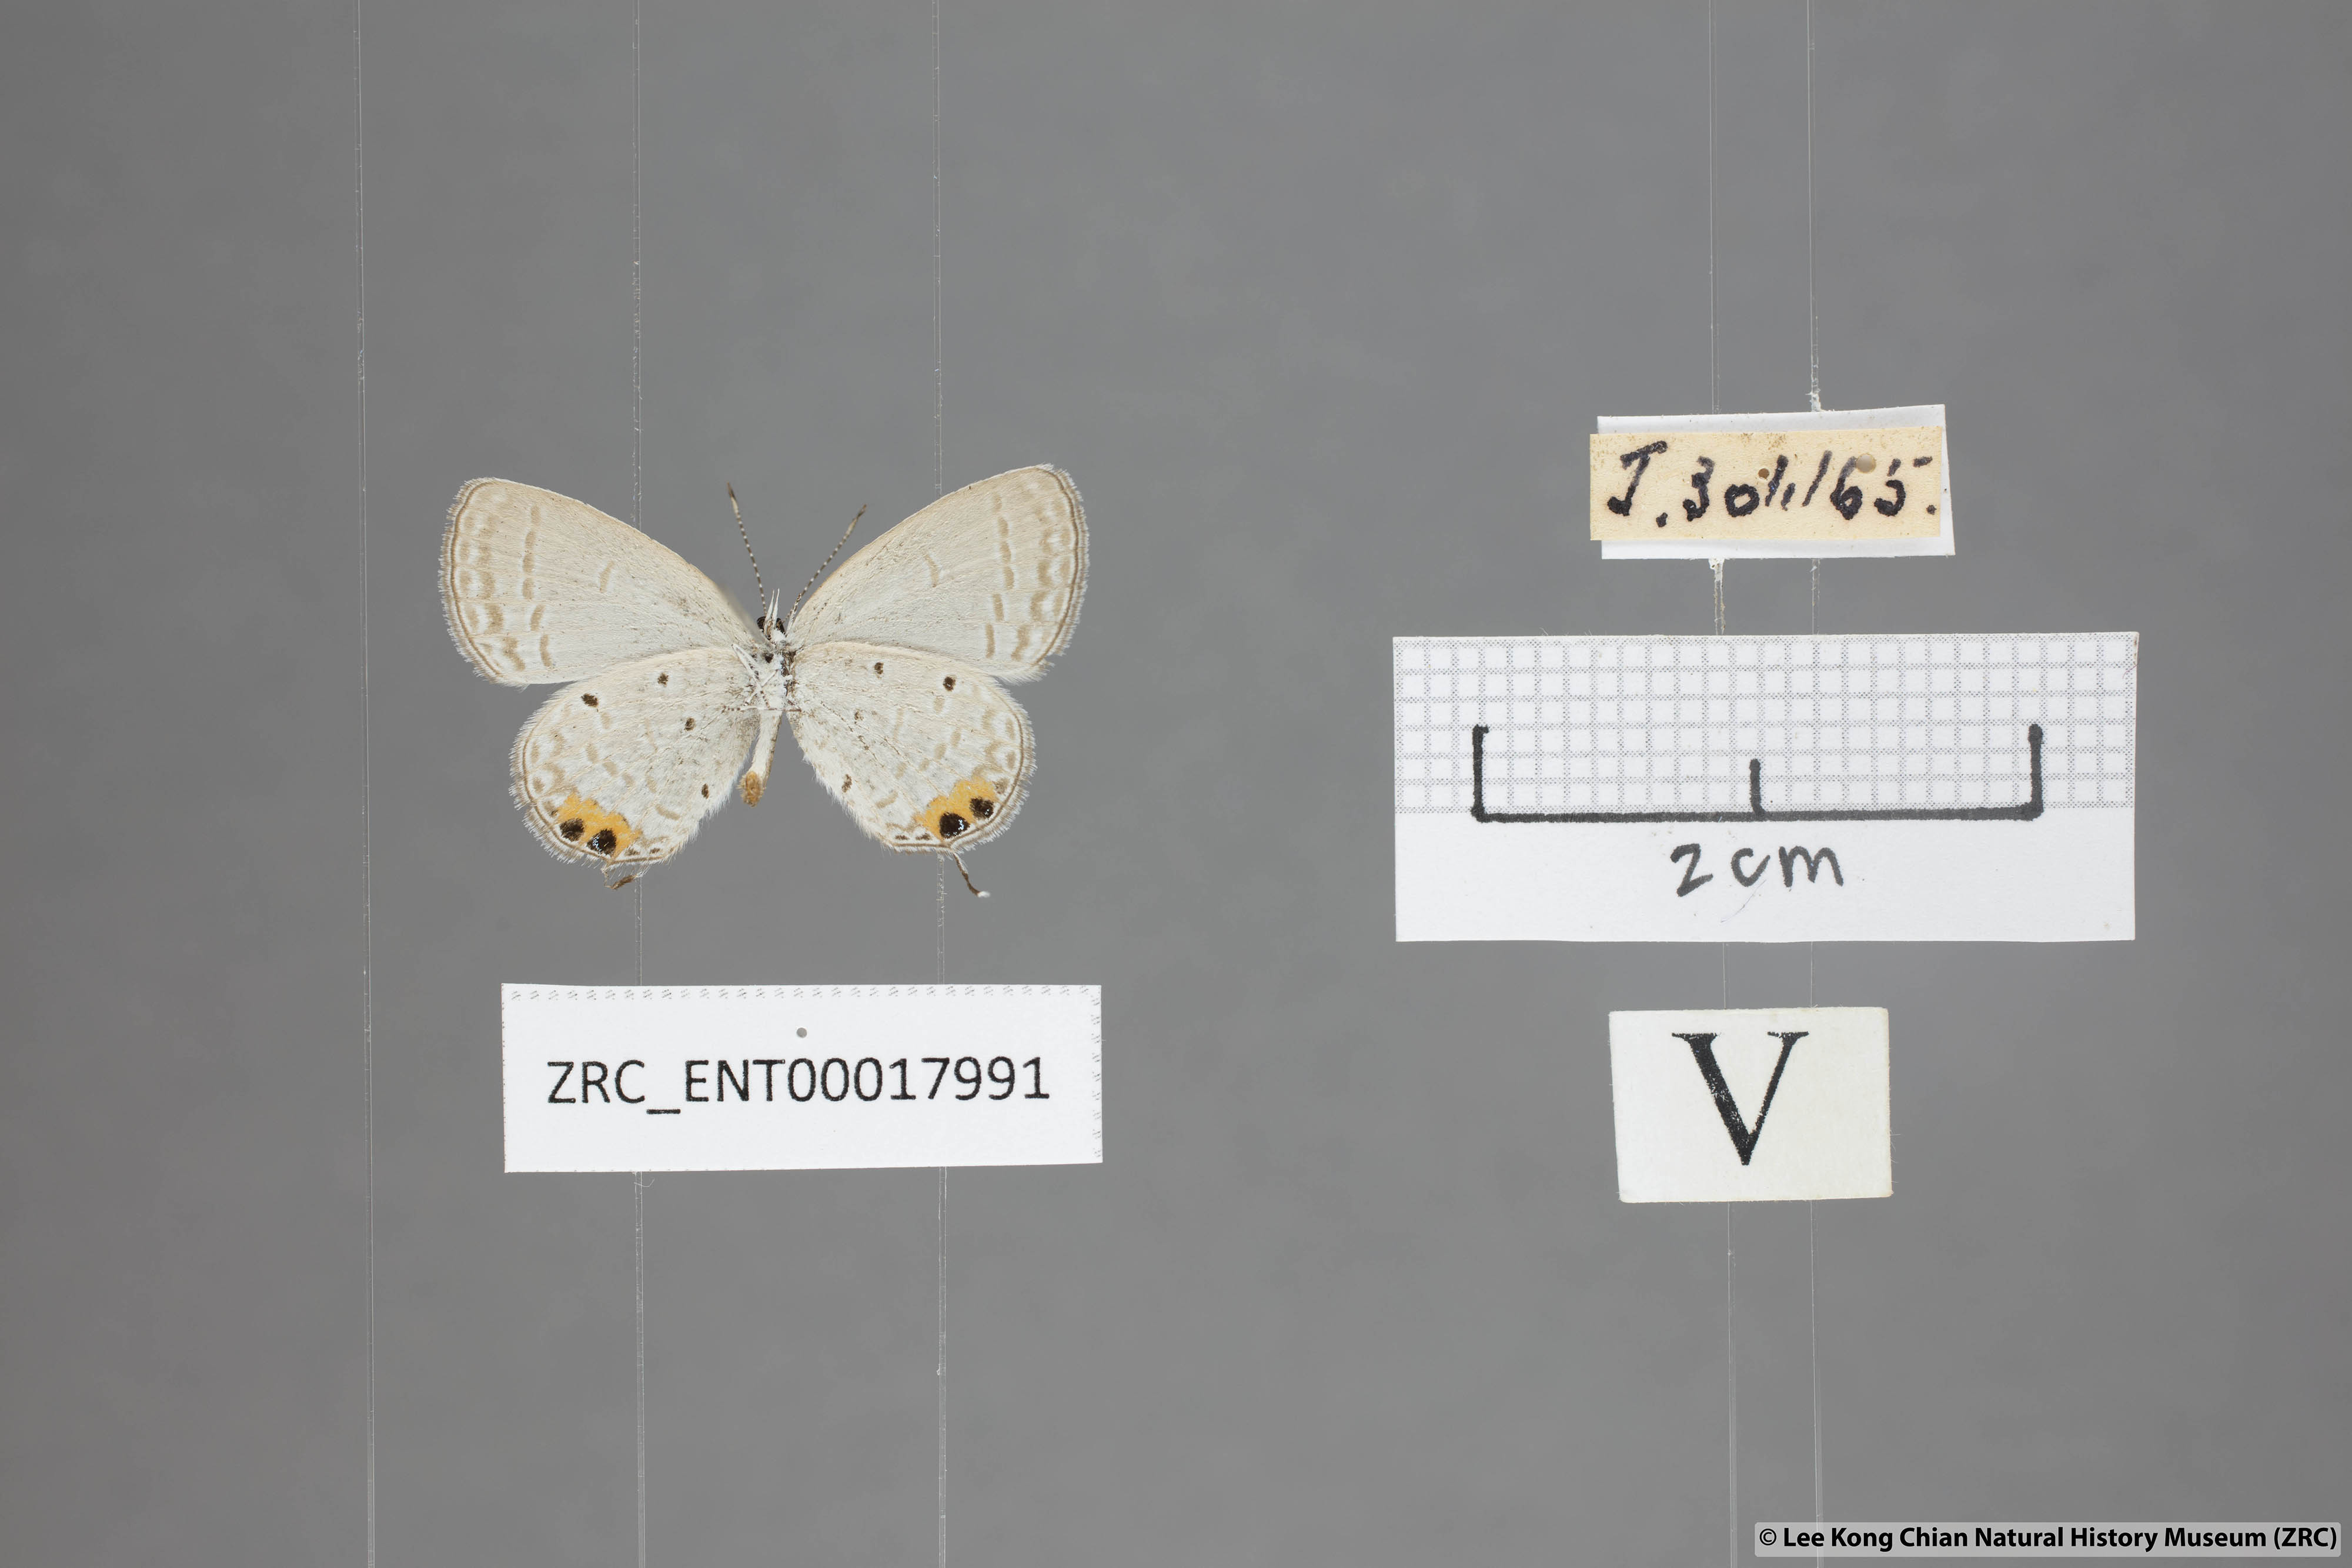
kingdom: Animalia
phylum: Arthropoda
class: Insecta
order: Lepidoptera
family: Lycaenidae
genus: Everes
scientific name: Everes lacturnus
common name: Orange-tipped pea-blue
